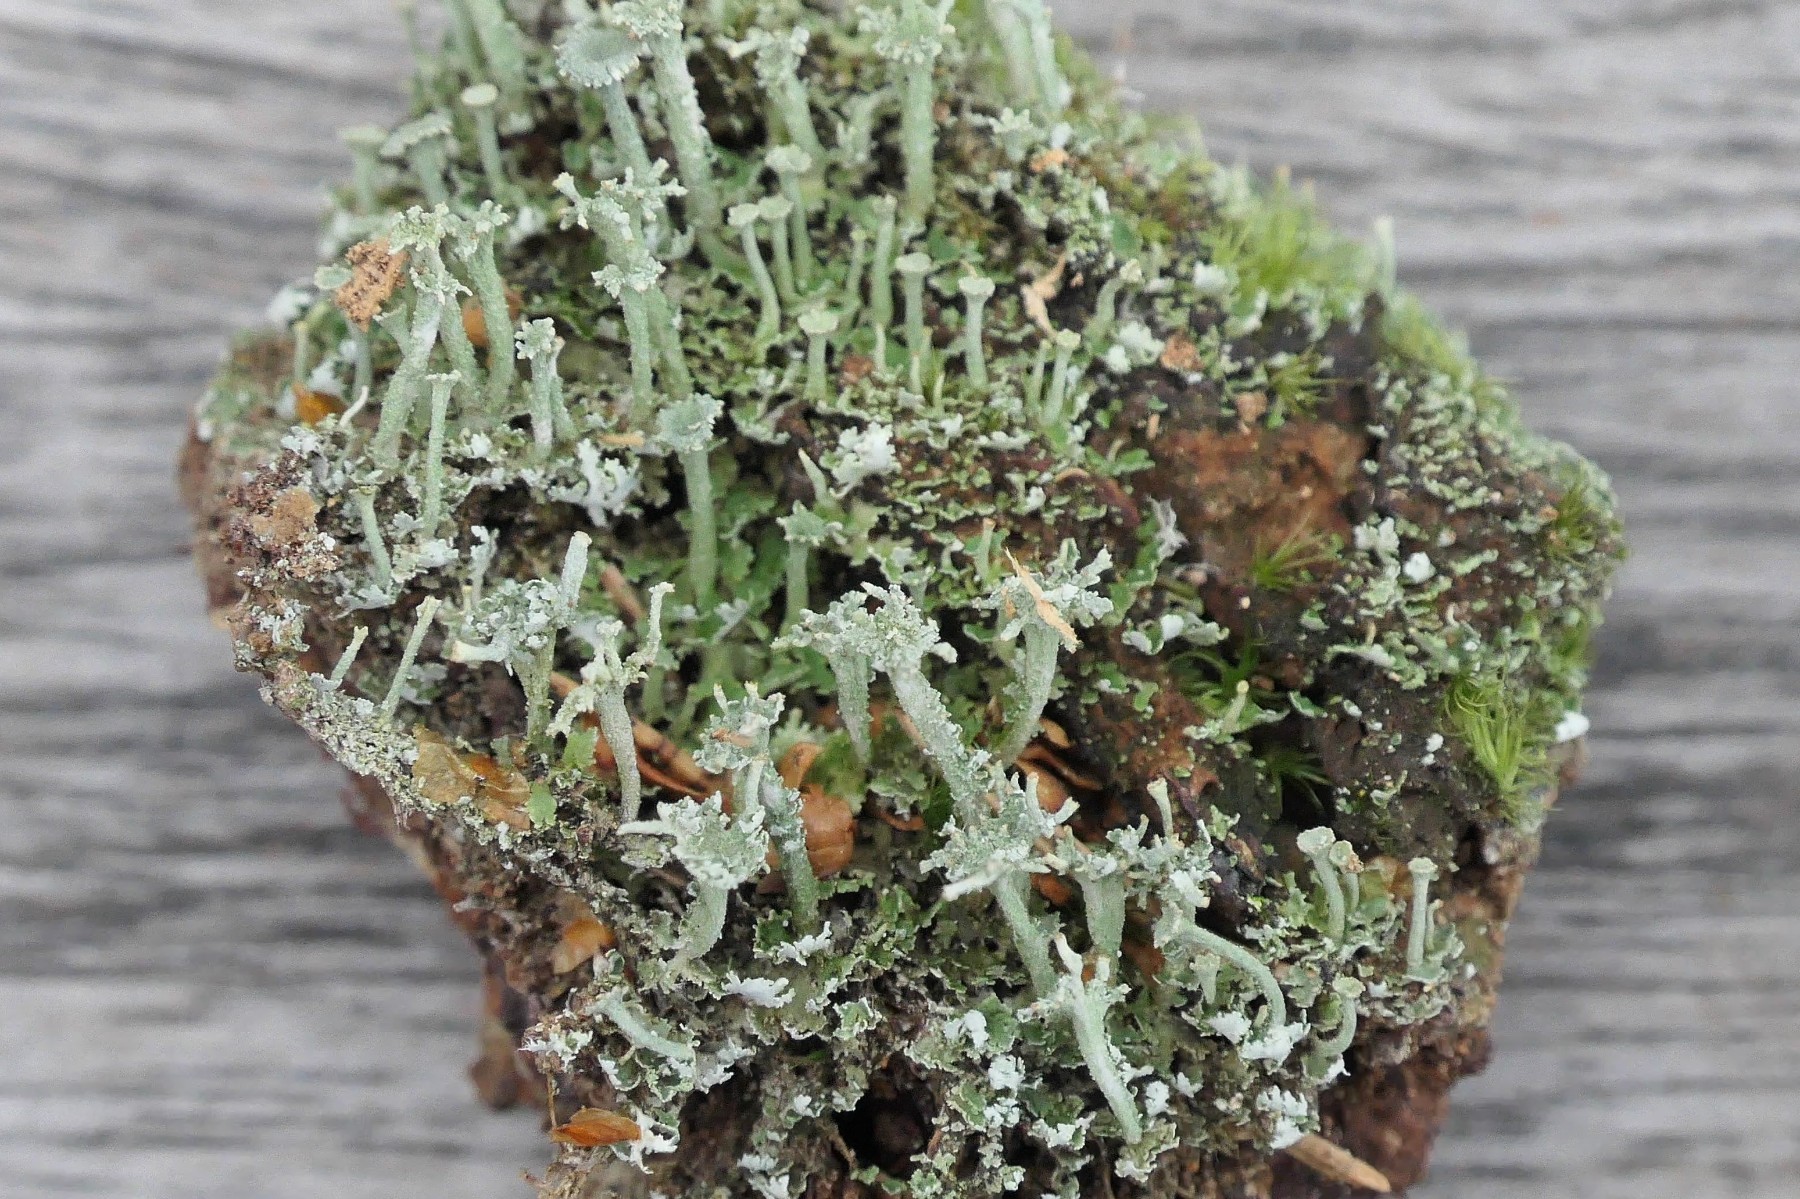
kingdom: Fungi
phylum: Ascomycota
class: Lecanoromycetes
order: Lecanorales
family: Cladoniaceae
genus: Cladonia
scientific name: Cladonia ramulosa
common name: kliddet bægerlav
